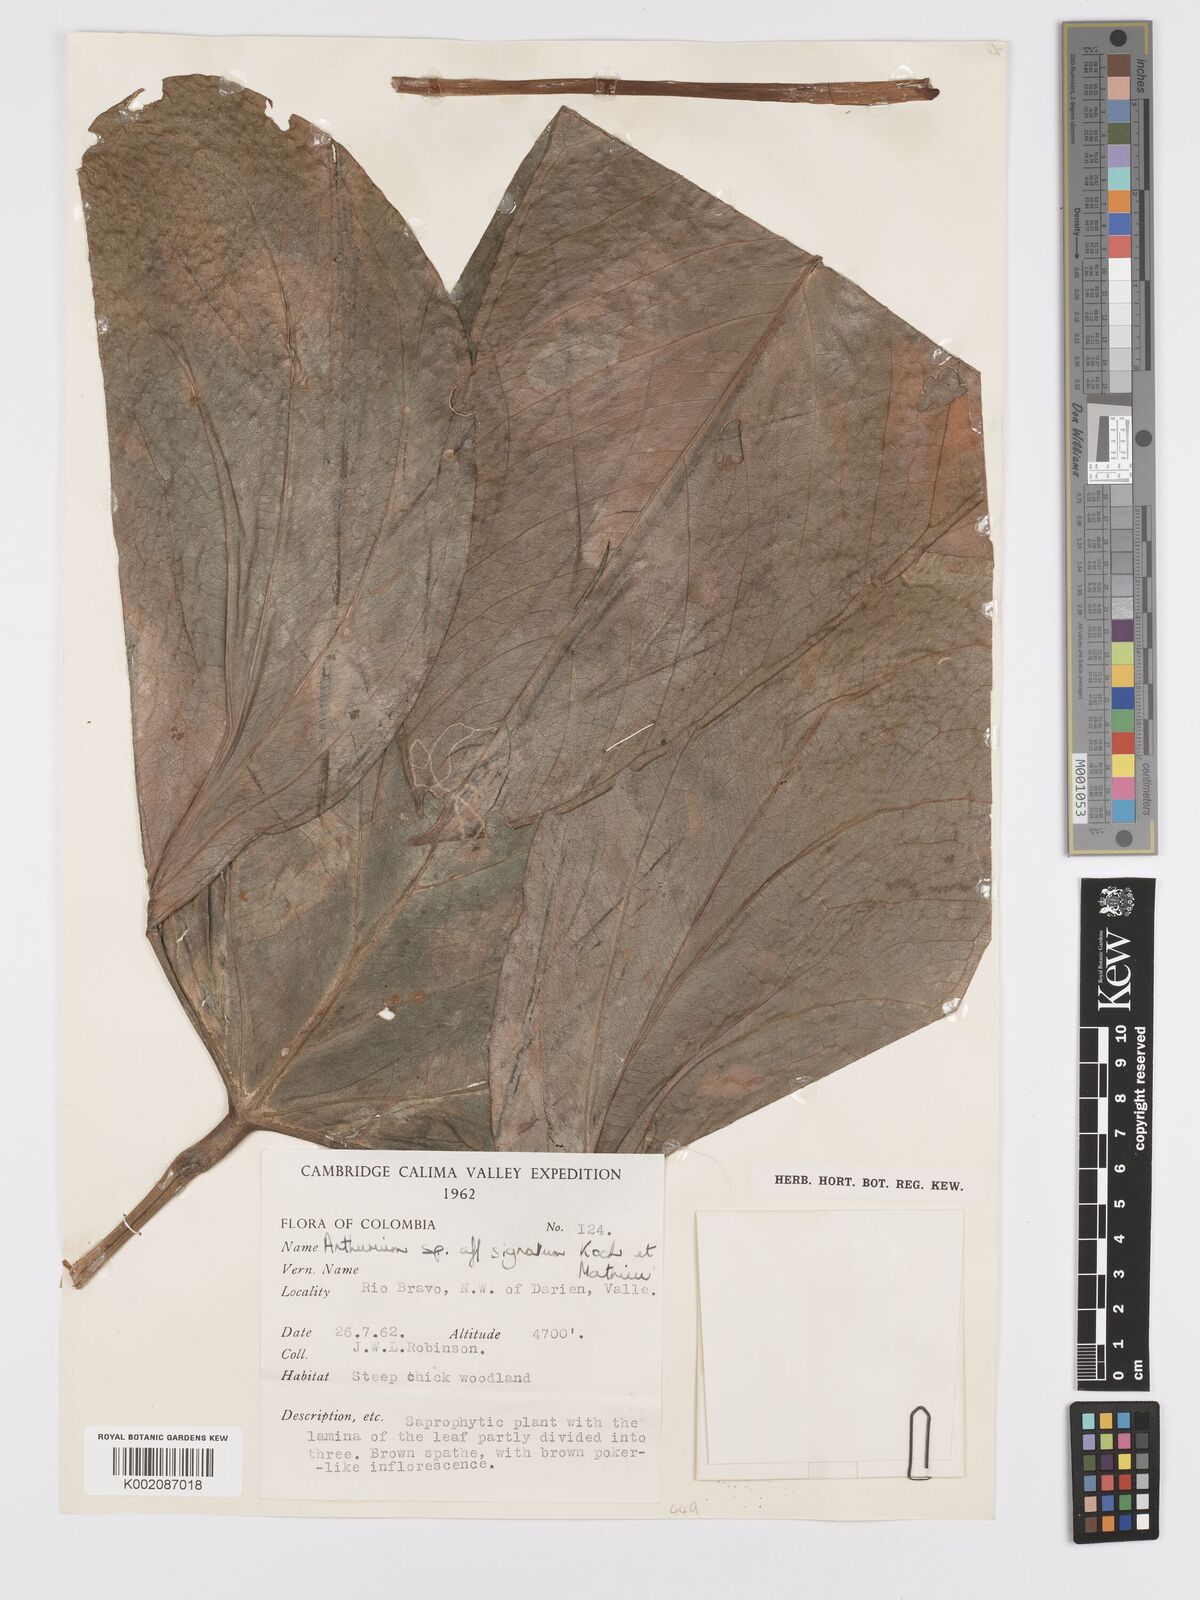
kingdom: Plantae
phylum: Tracheophyta
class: Liliopsida
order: Alismatales
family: Araceae
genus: Anthurium
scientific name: Anthurium signatum
